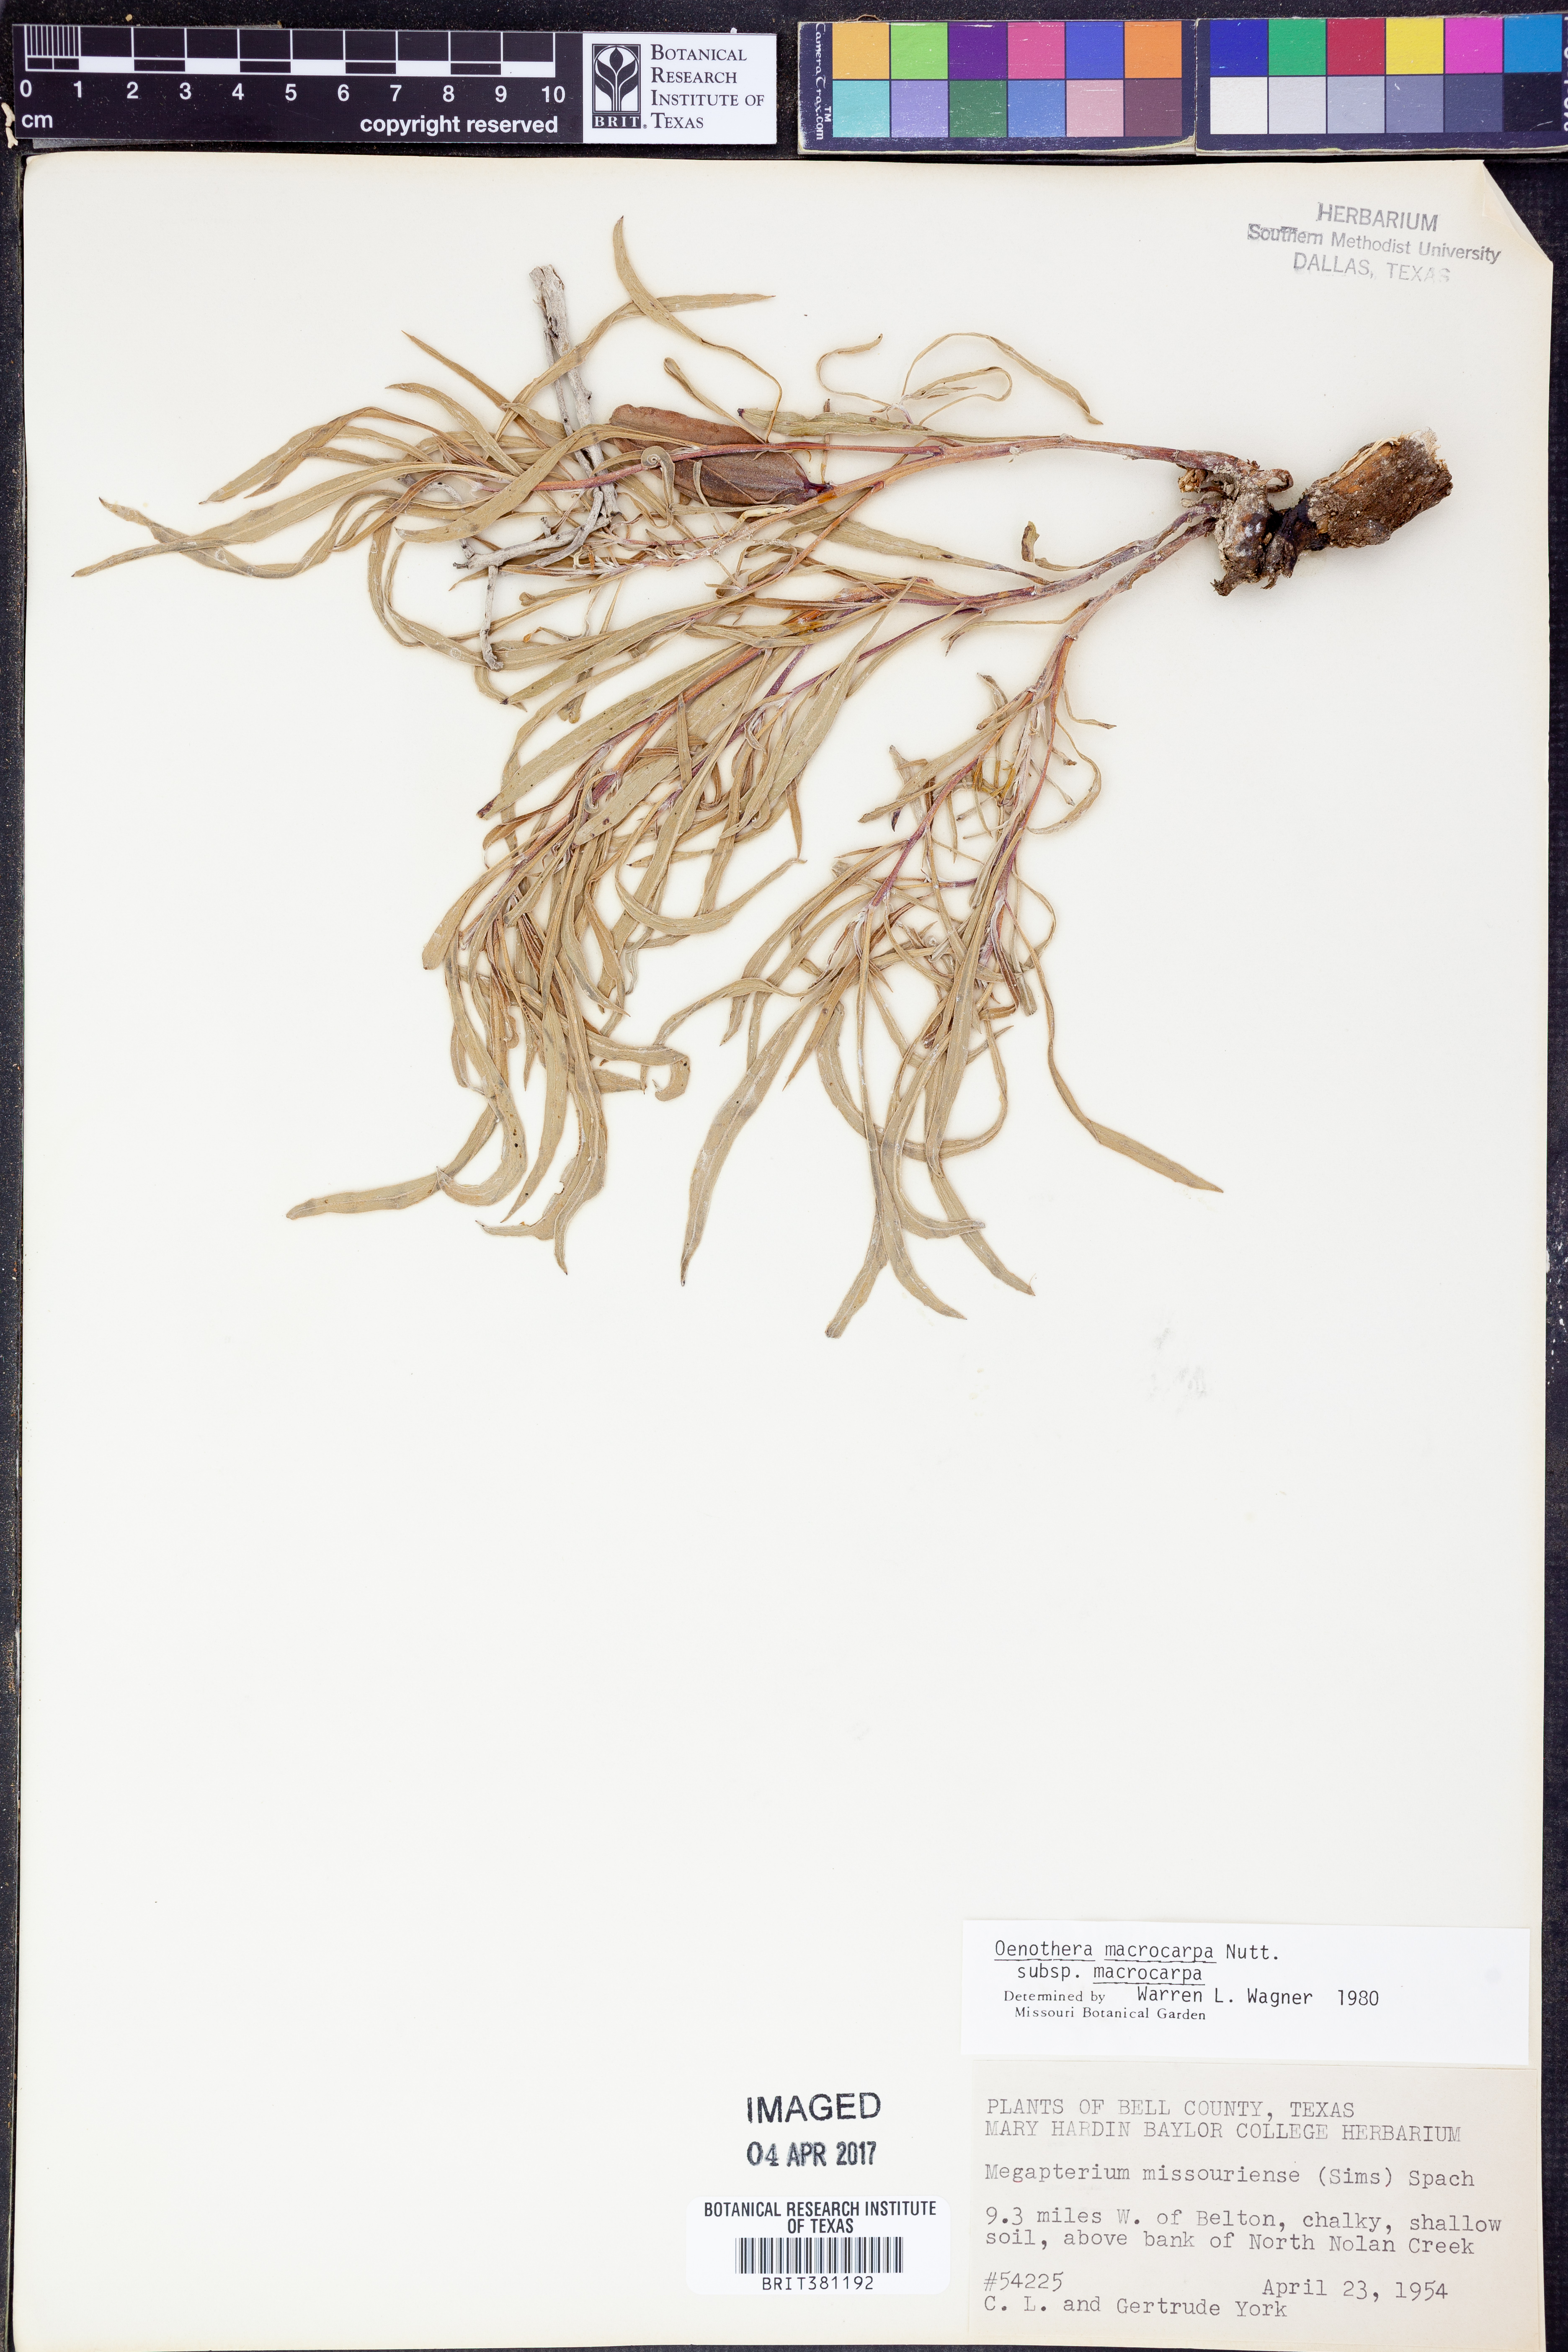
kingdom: Plantae
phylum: Tracheophyta
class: Magnoliopsida
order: Myrtales
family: Onagraceae
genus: Oenothera
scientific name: Oenothera macrocarpa
